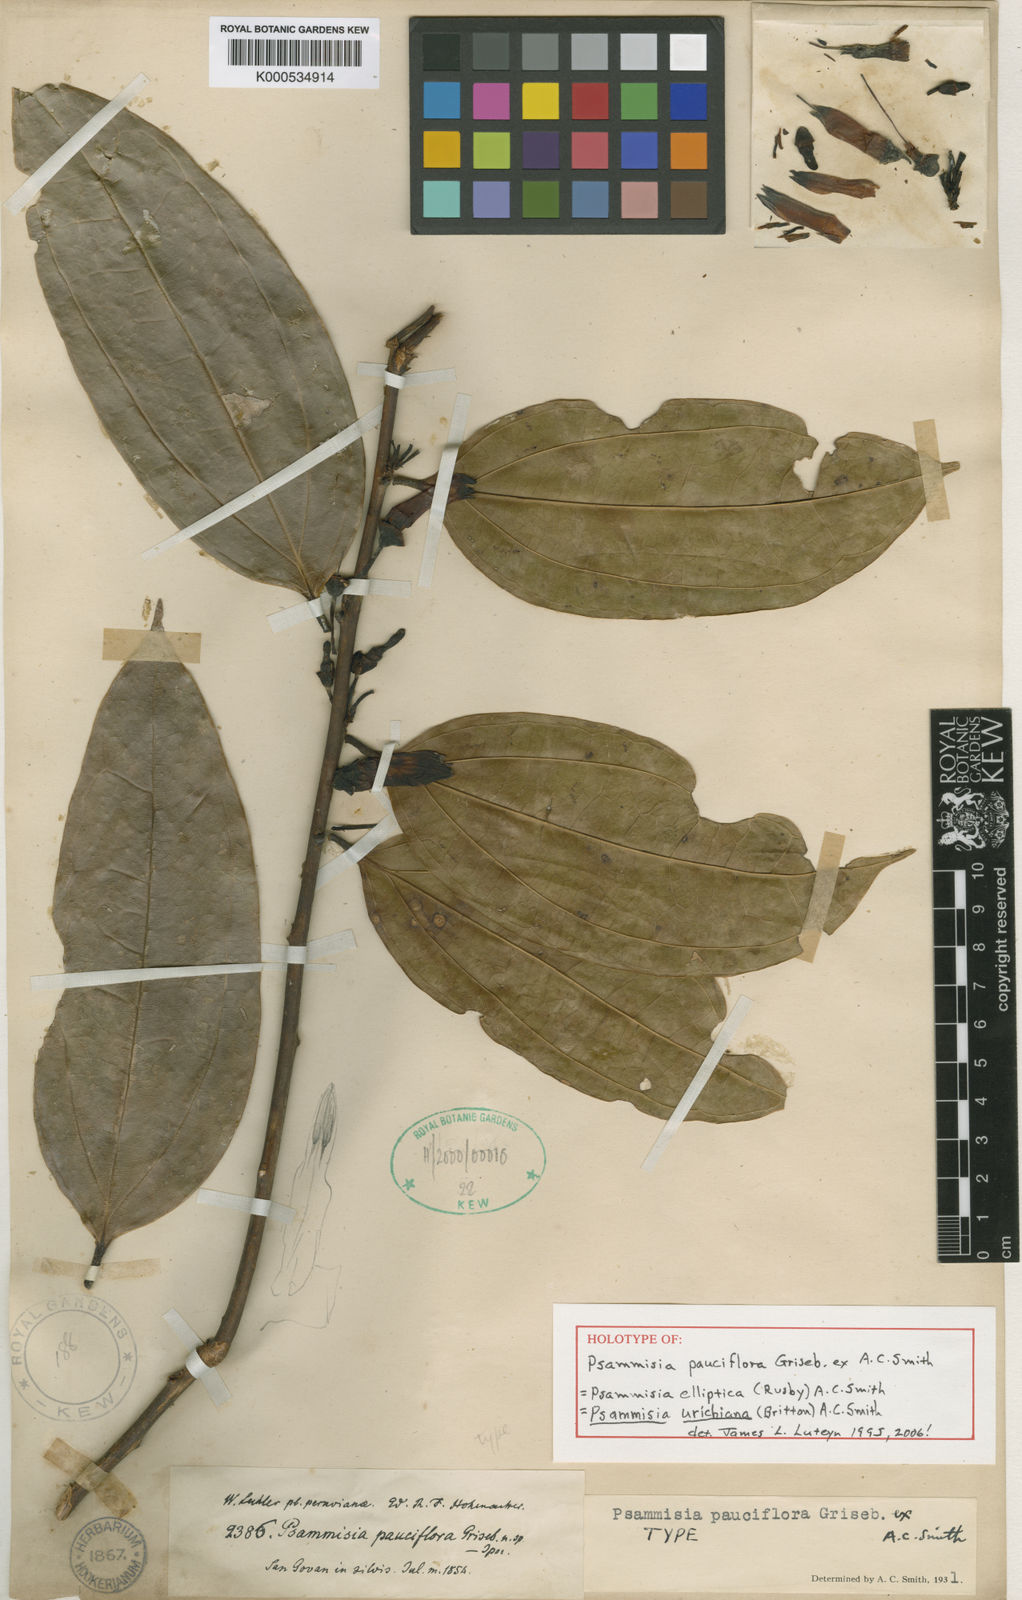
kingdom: Plantae
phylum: Tracheophyta
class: Magnoliopsida
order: Ericales
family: Ericaceae
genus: Psammisia
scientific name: Psammisia urichiana
